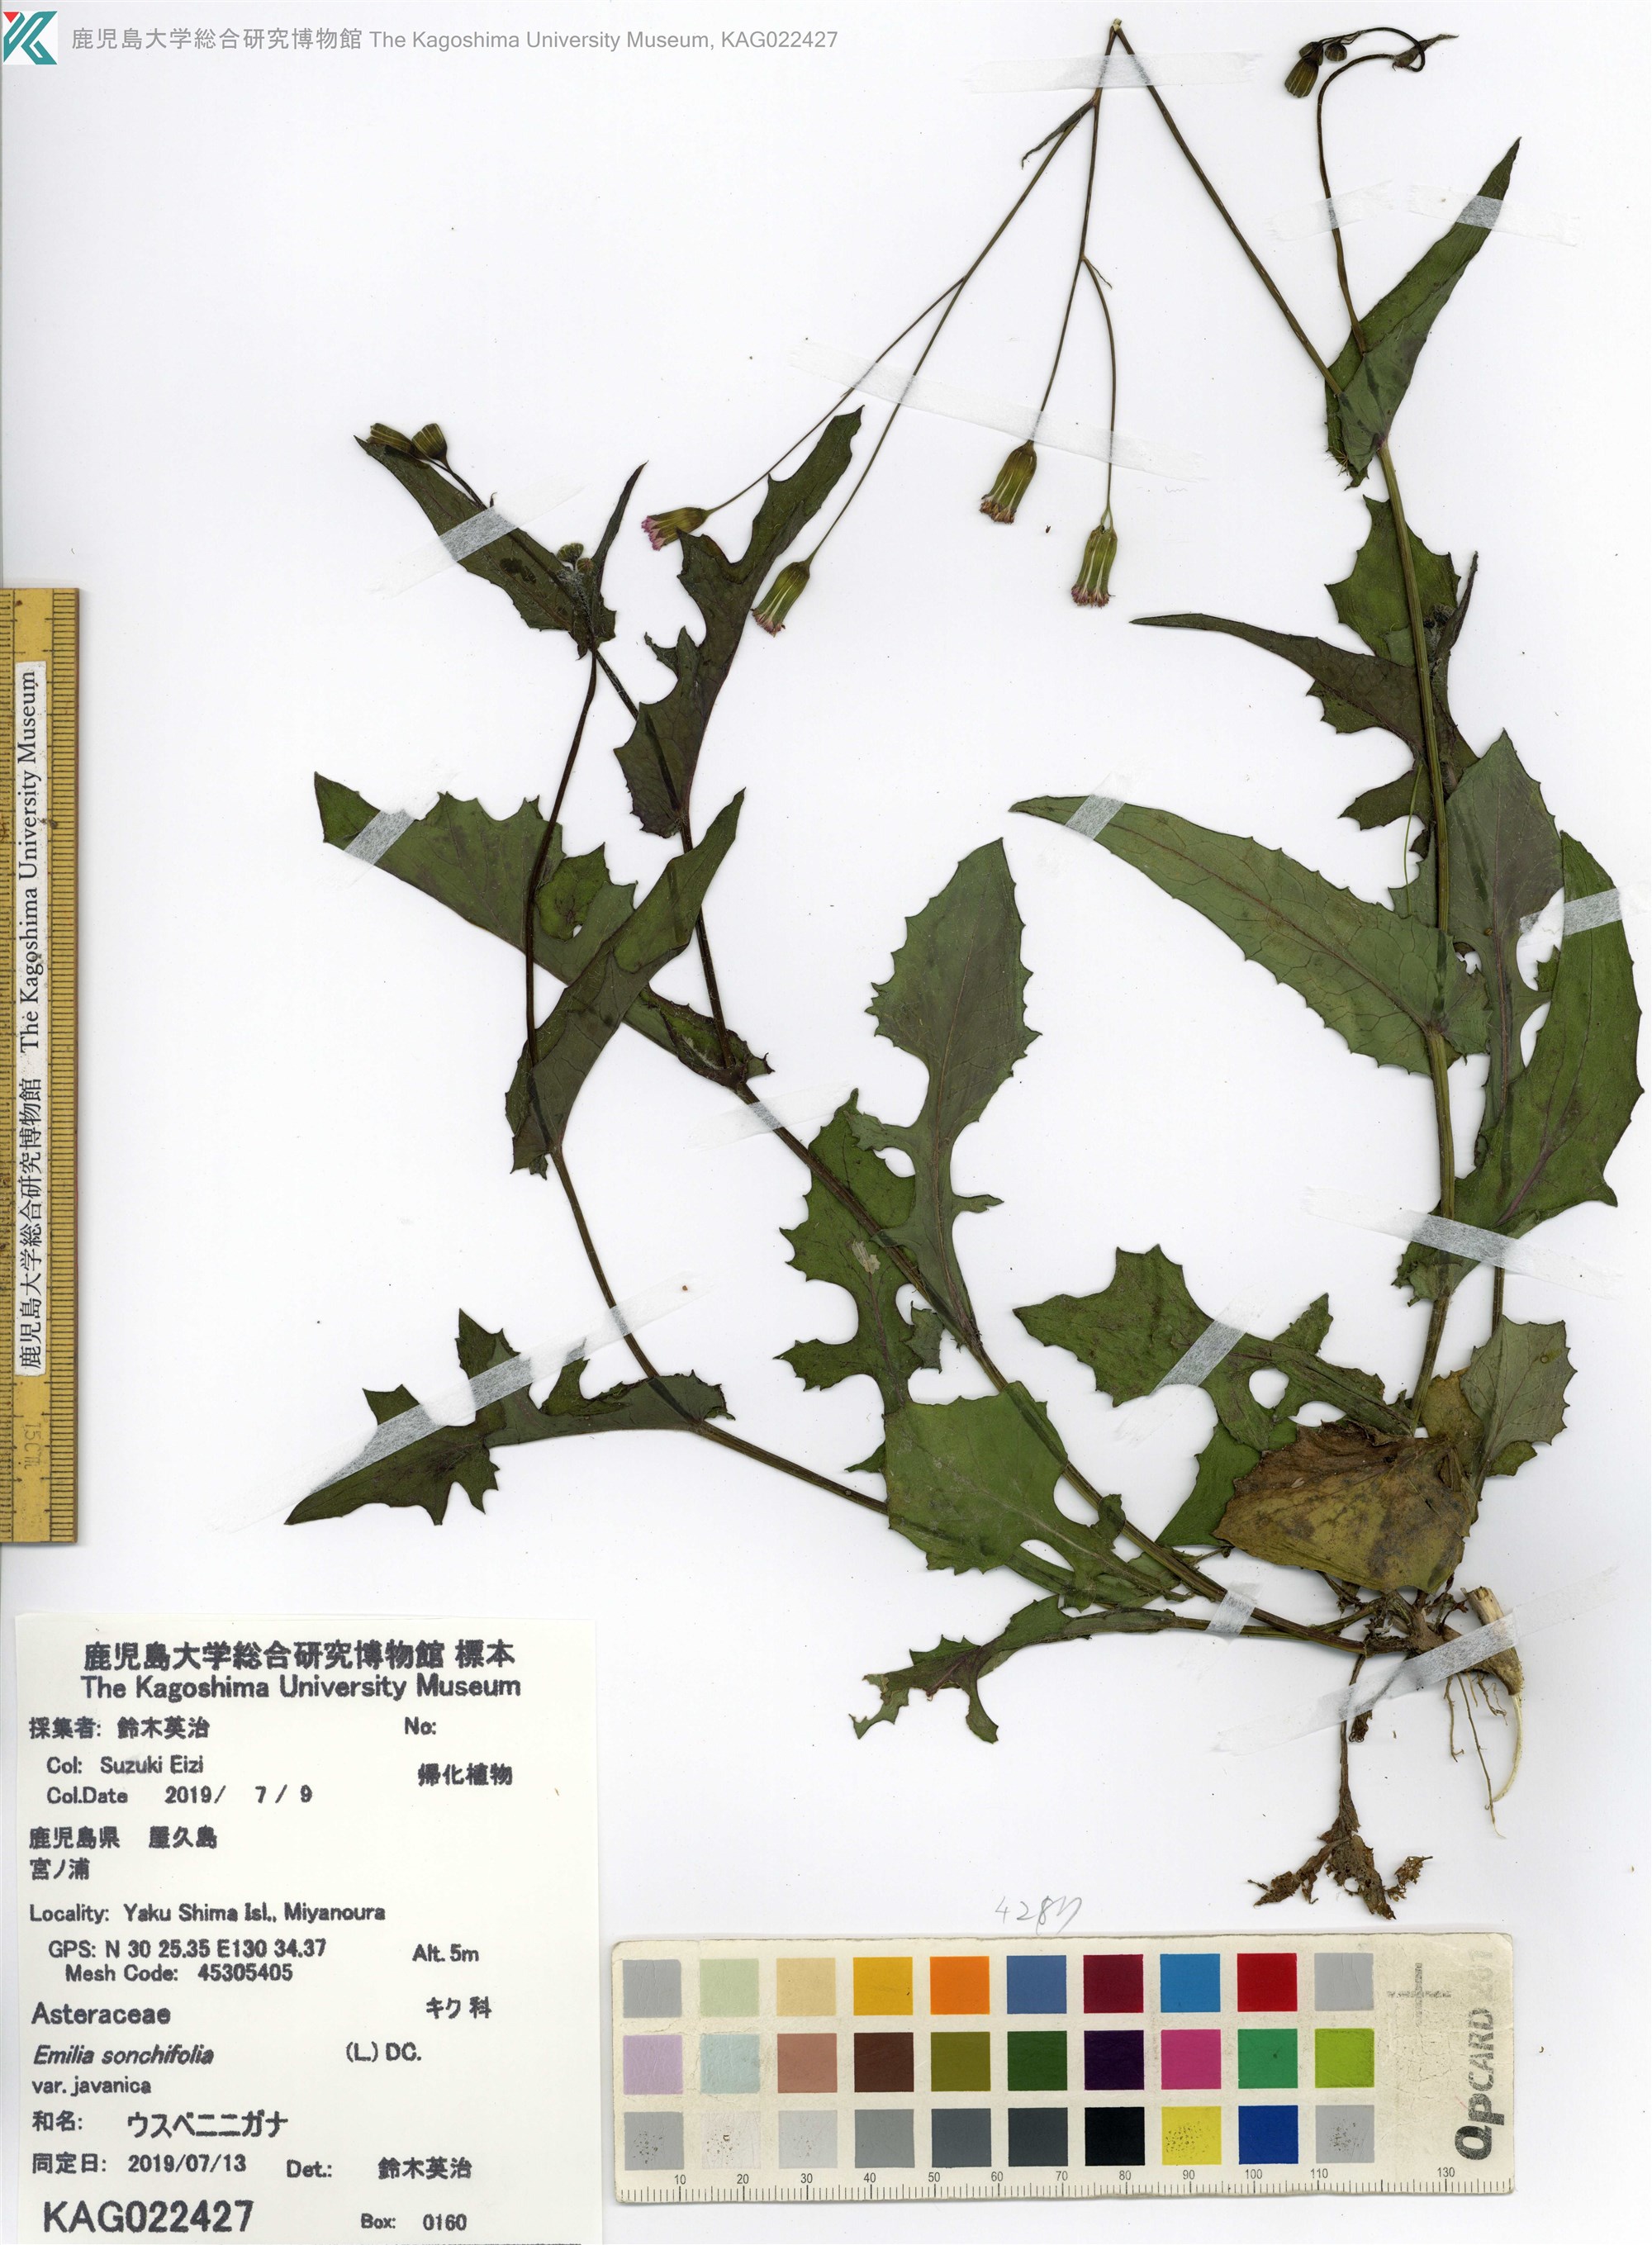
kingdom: Plantae
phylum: Tracheophyta
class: Magnoliopsida
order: Asterales
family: Asteraceae
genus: Emilia
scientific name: Emilia sonchifolia
